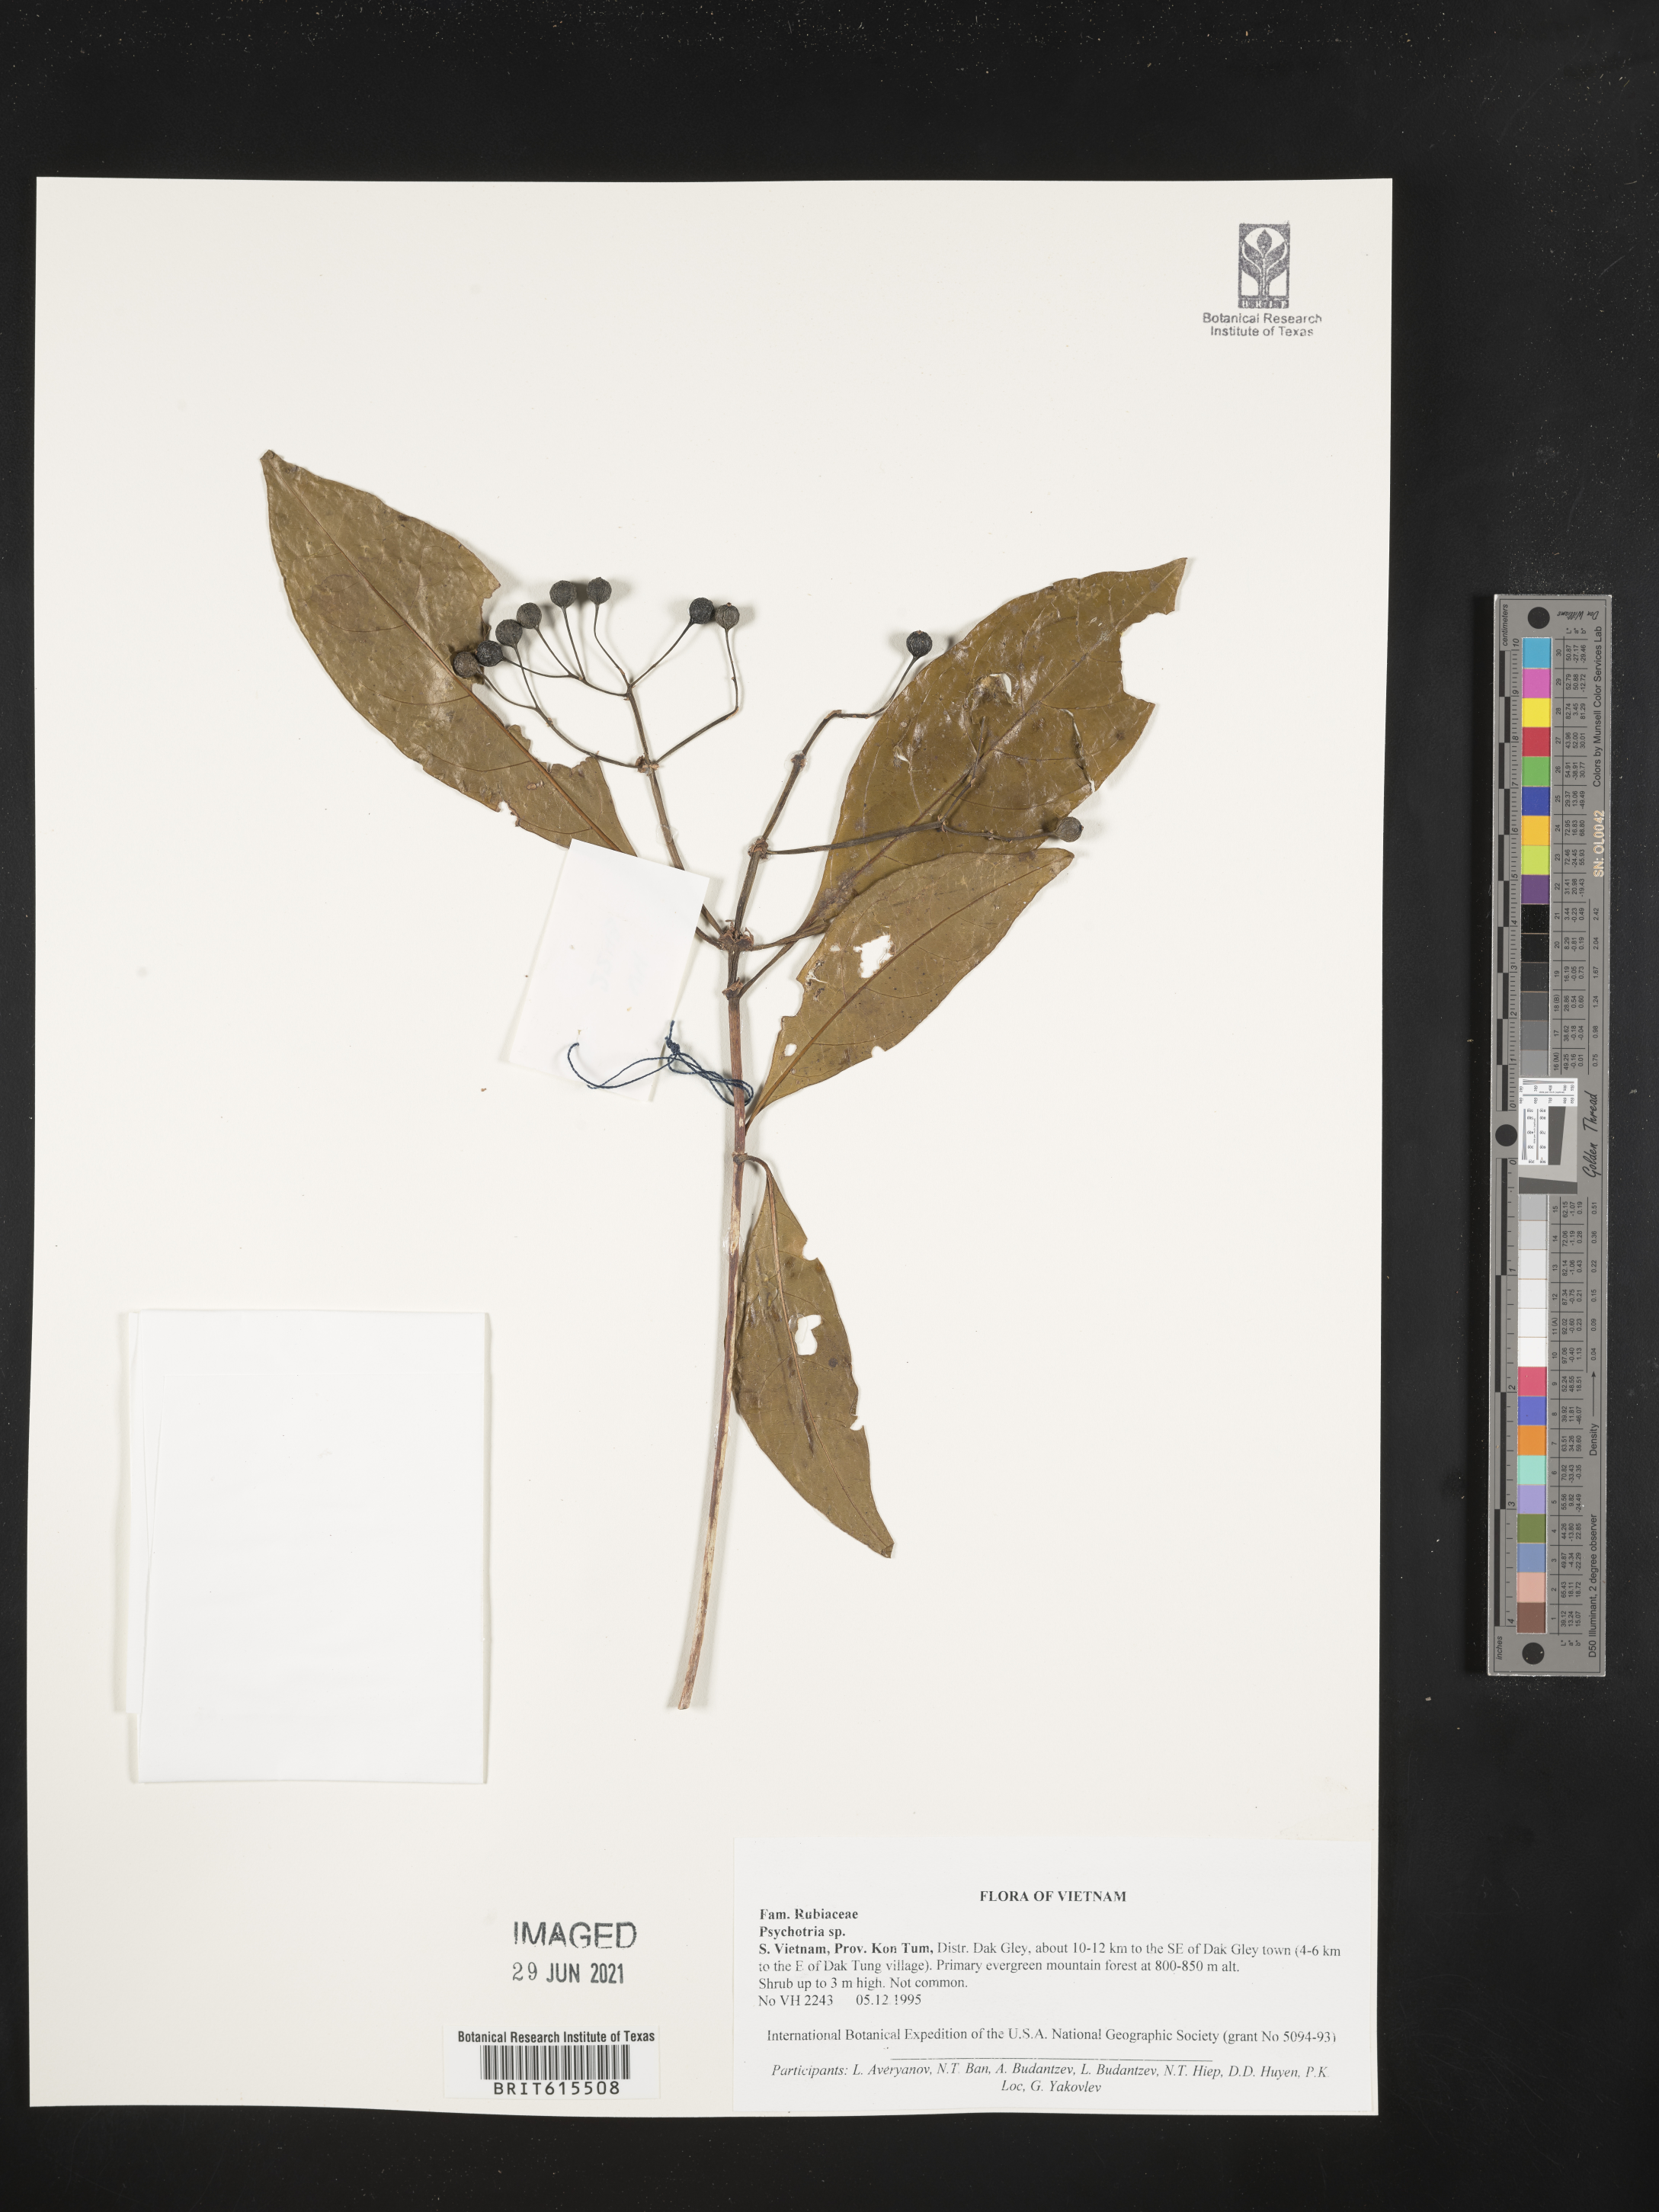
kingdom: Plantae
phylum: Tracheophyta
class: Magnoliopsida
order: Gentianales
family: Rubiaceae
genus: Psychotria
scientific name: Psychotria
